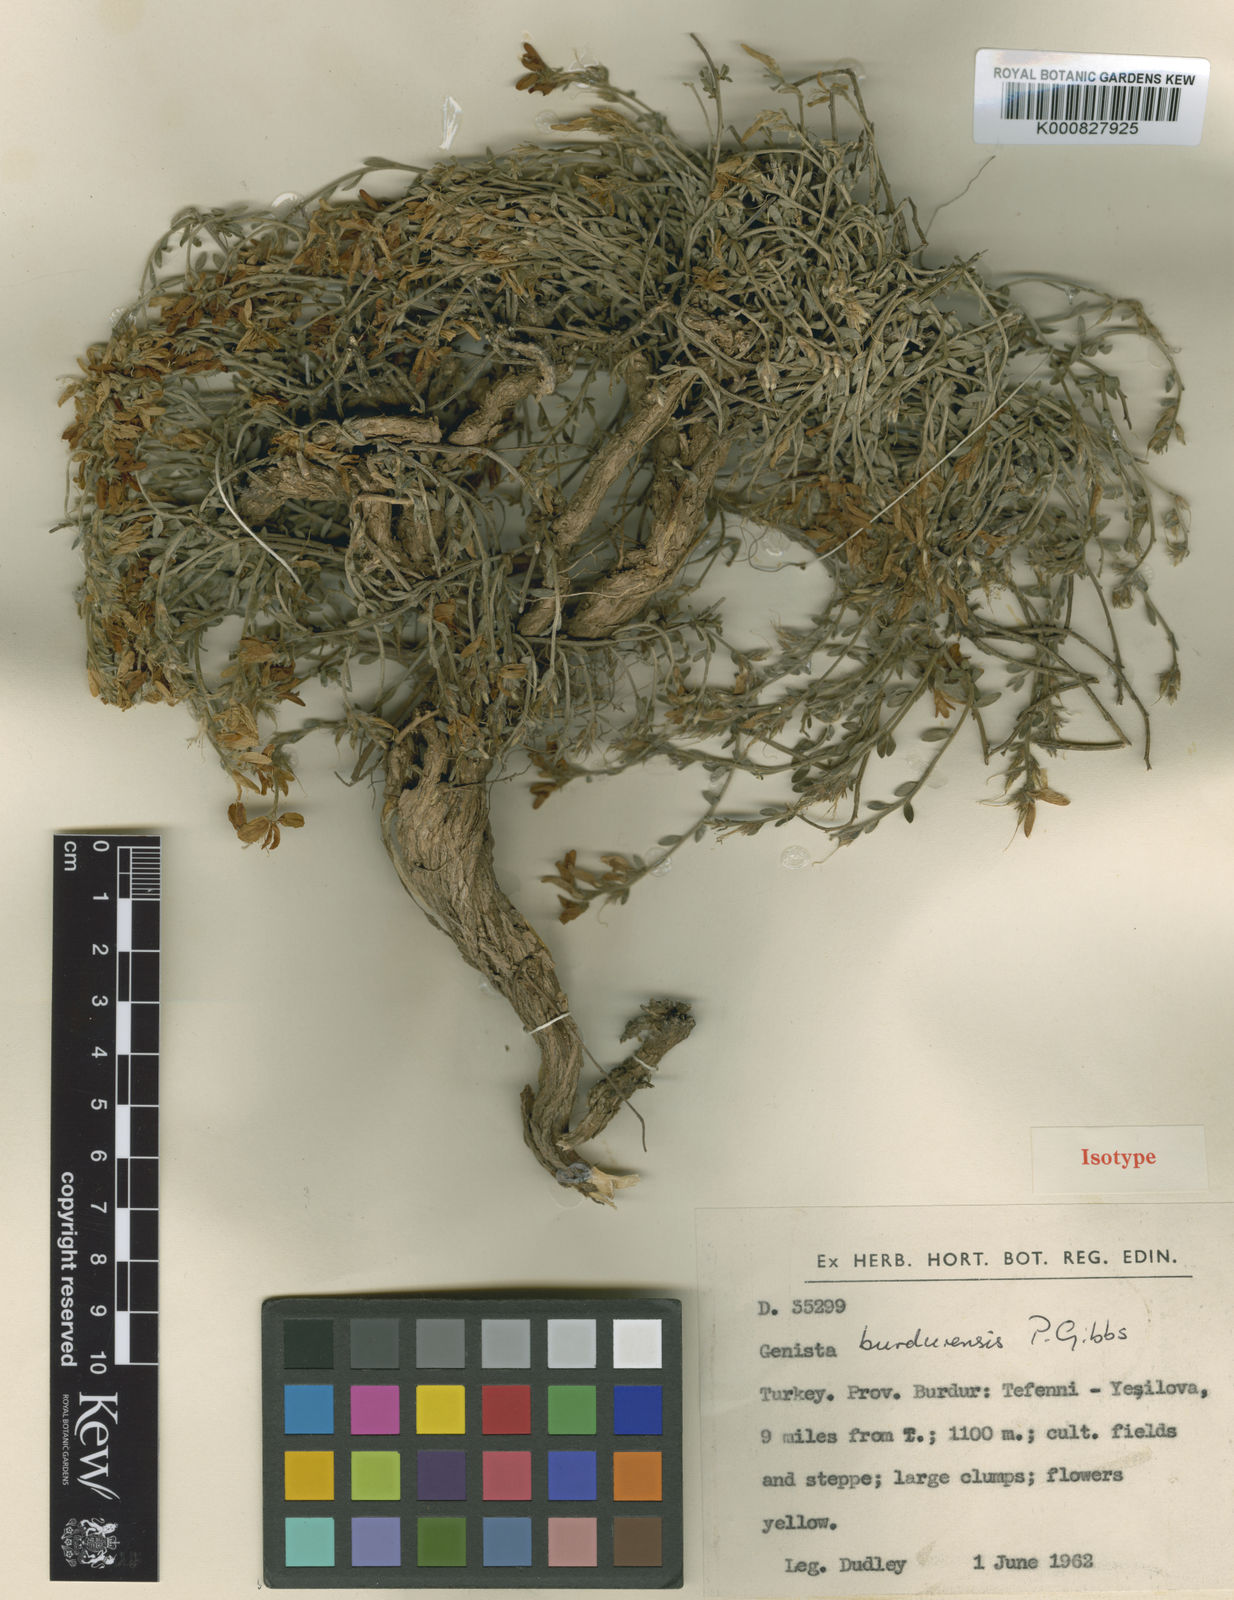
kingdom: Plantae
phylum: Tracheophyta
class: Magnoliopsida
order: Fabales
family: Fabaceae
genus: Genista
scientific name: Genista burdurensis
